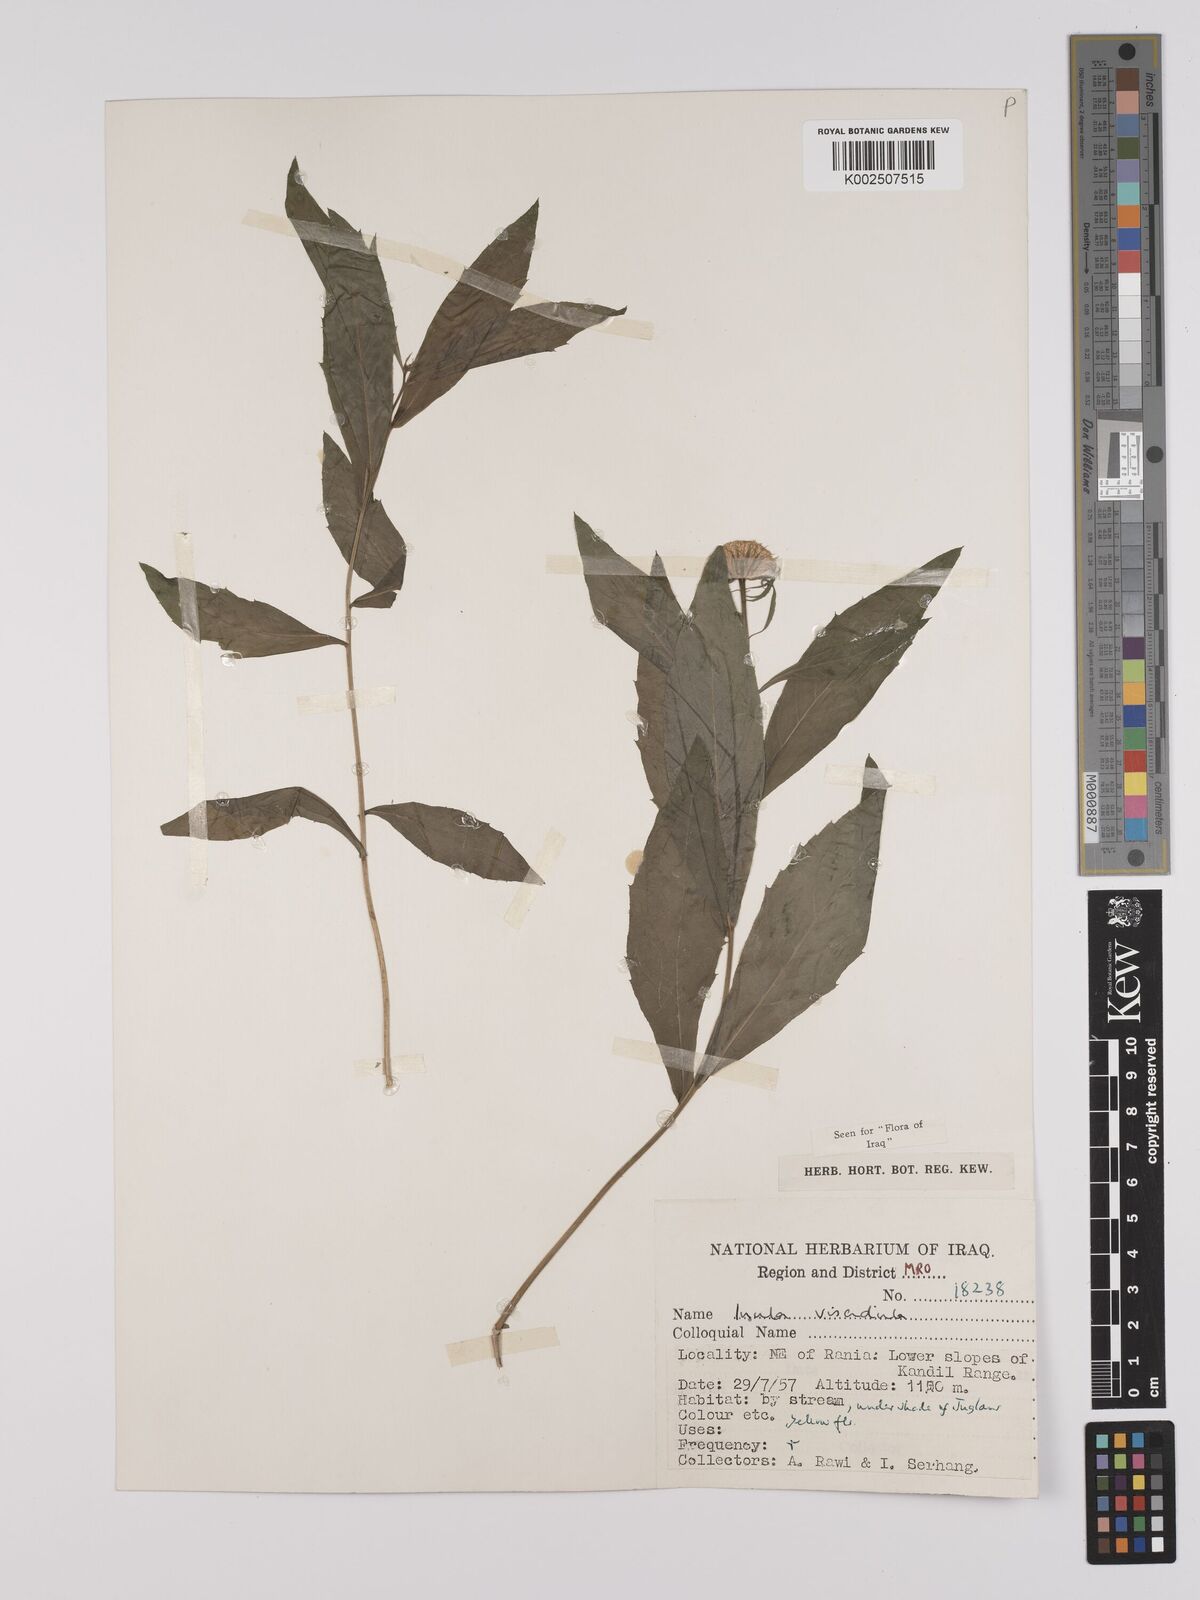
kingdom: Plantae
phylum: Tracheophyta
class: Magnoliopsida
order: Asterales
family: Asteraceae
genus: Inula
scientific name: Inula
